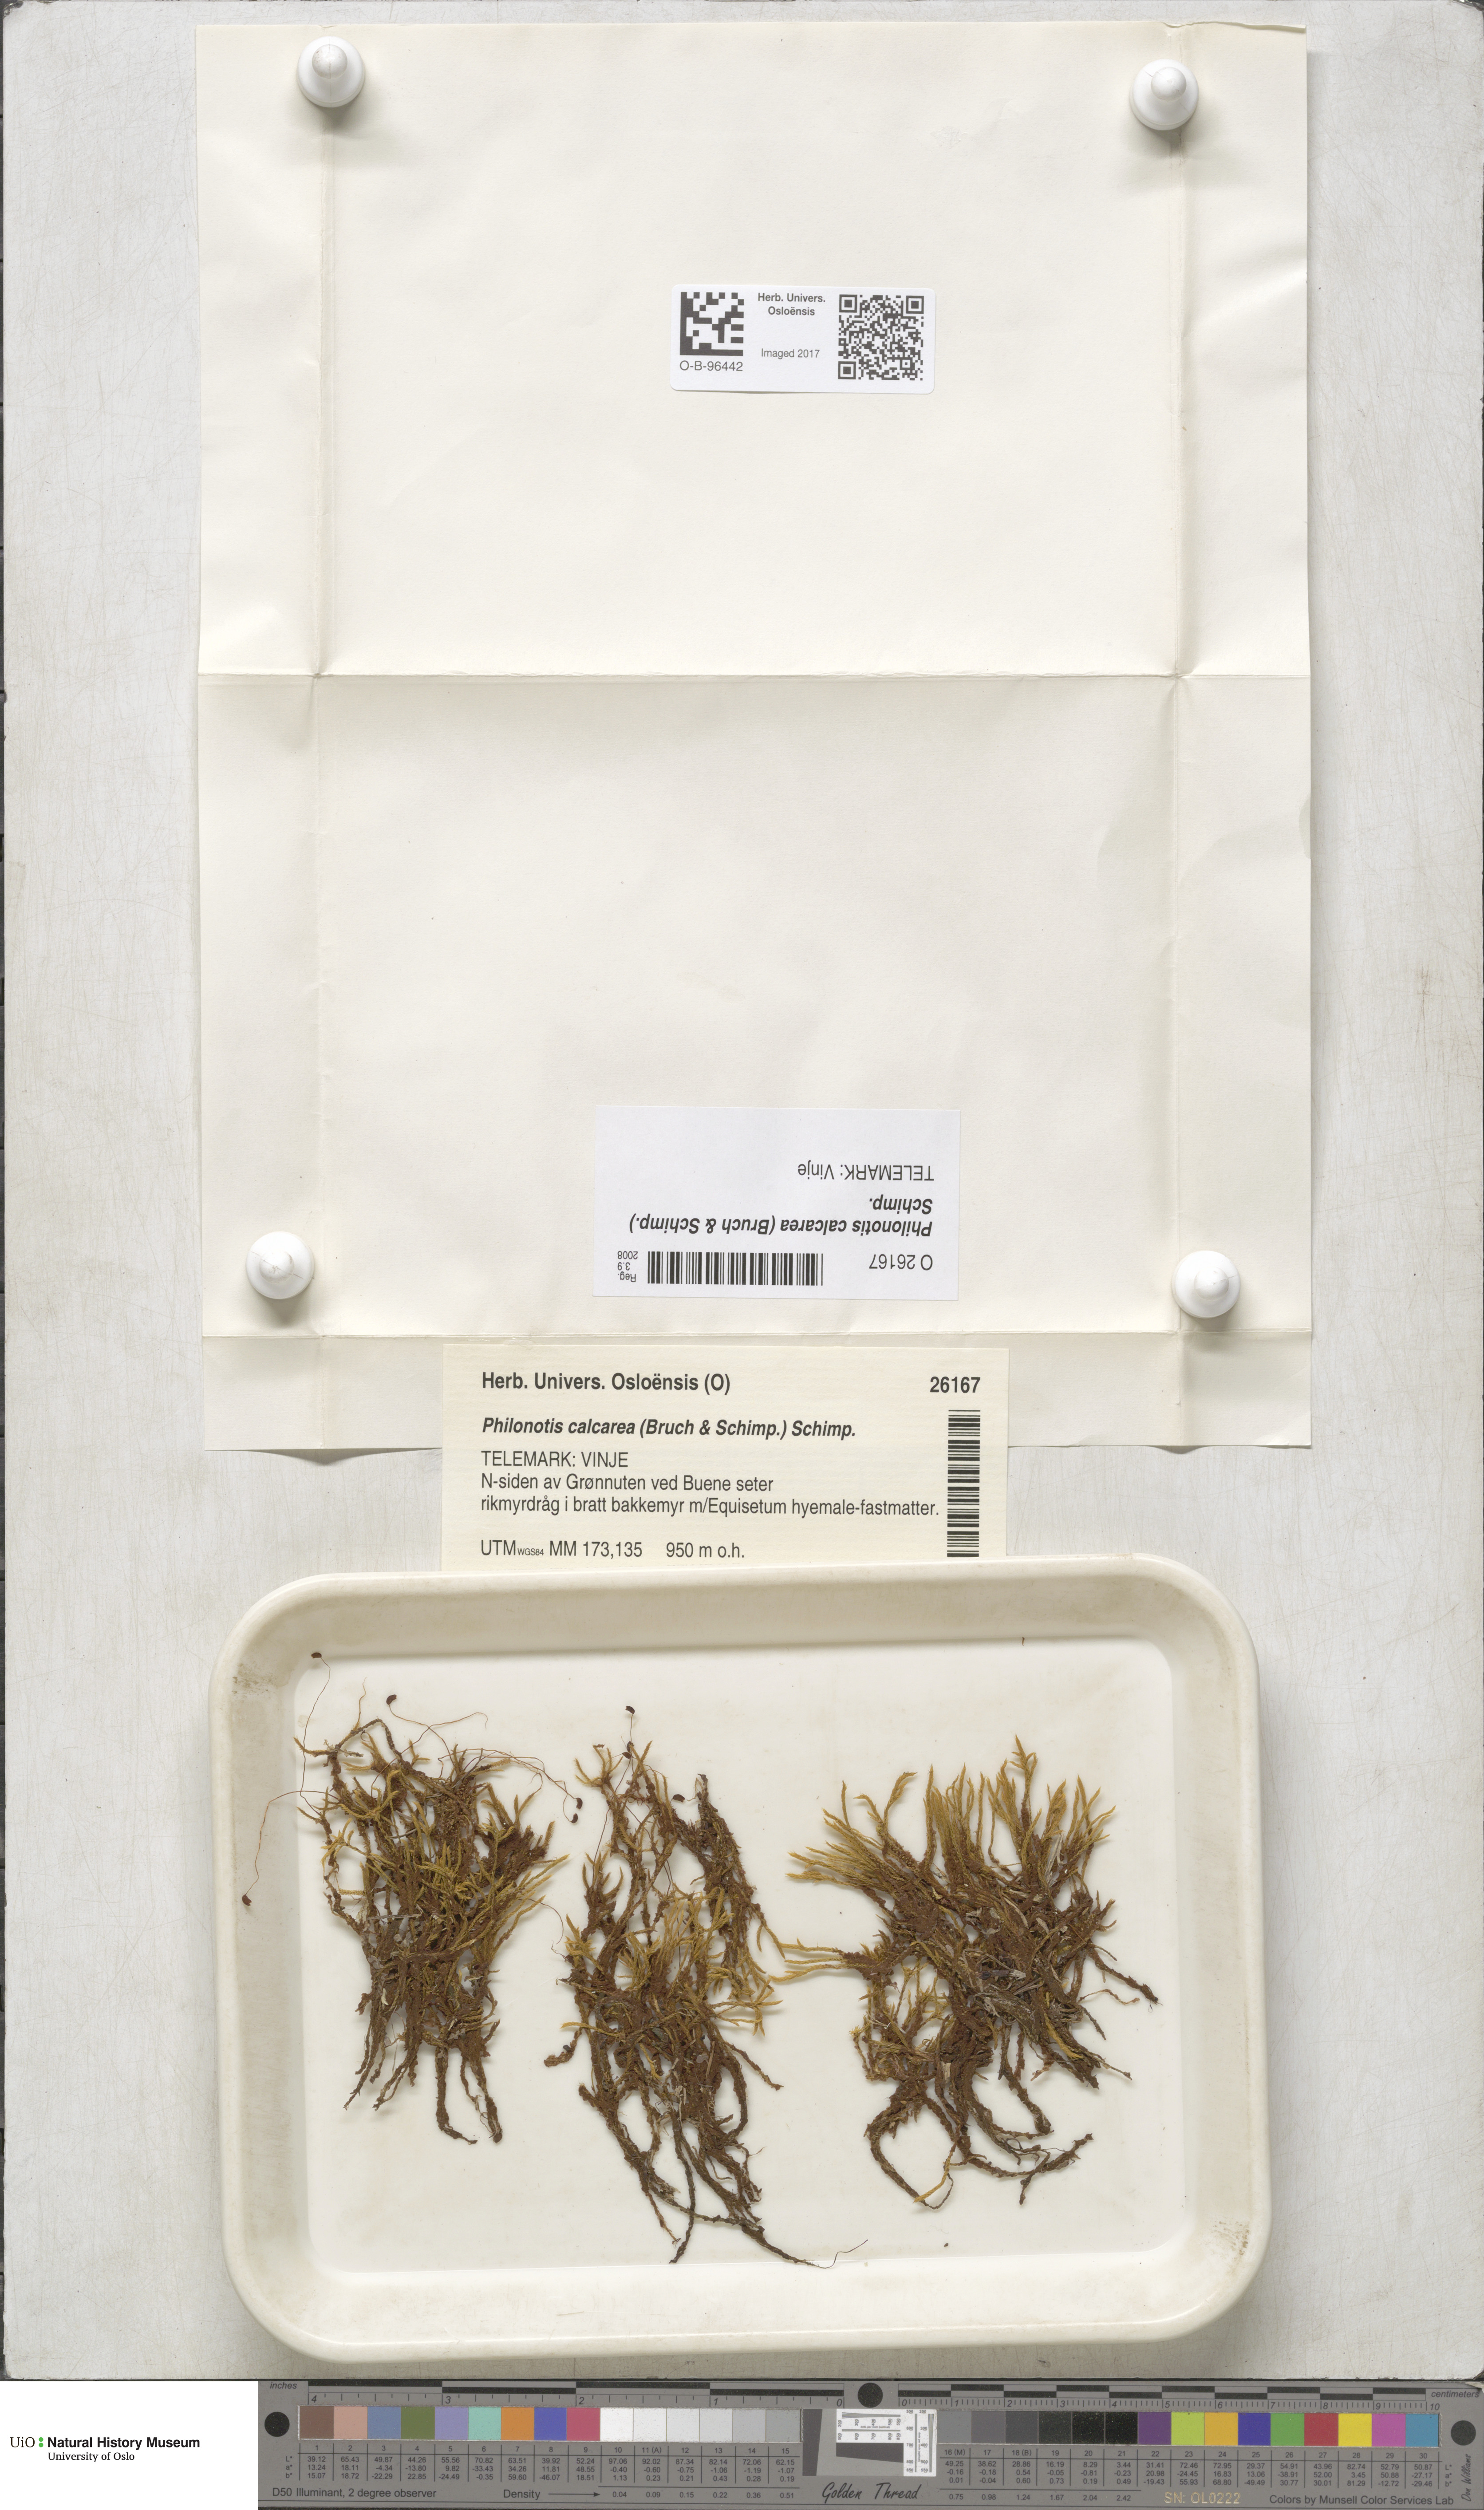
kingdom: Plantae
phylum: Bryophyta
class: Bryopsida
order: Bartramiales
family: Bartramiaceae
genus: Philonotis
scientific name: Philonotis calcarea
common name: Thick-nerved apple-moss
